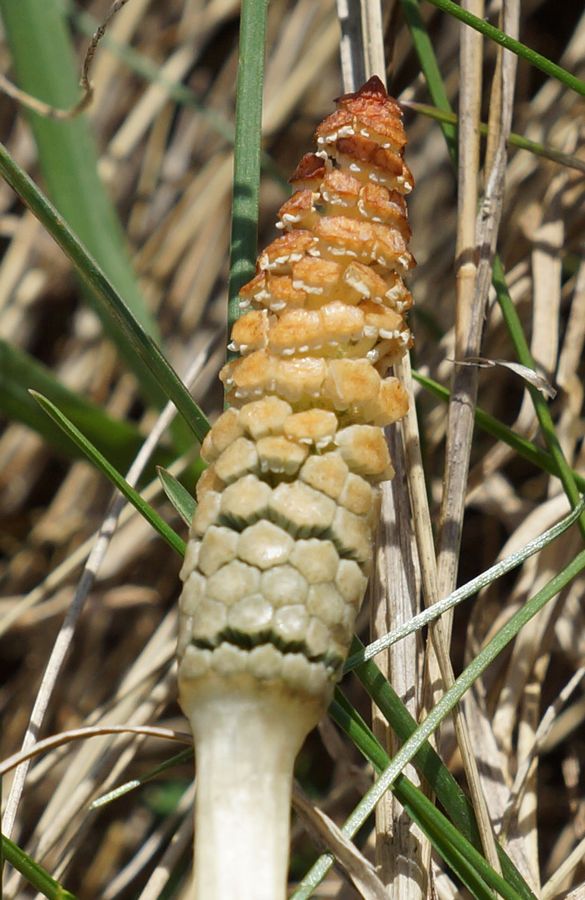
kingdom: Plantae
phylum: Tracheophyta
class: Polypodiopsida
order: Equisetales
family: Equisetaceae
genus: Equisetum
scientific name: Equisetum arvense
